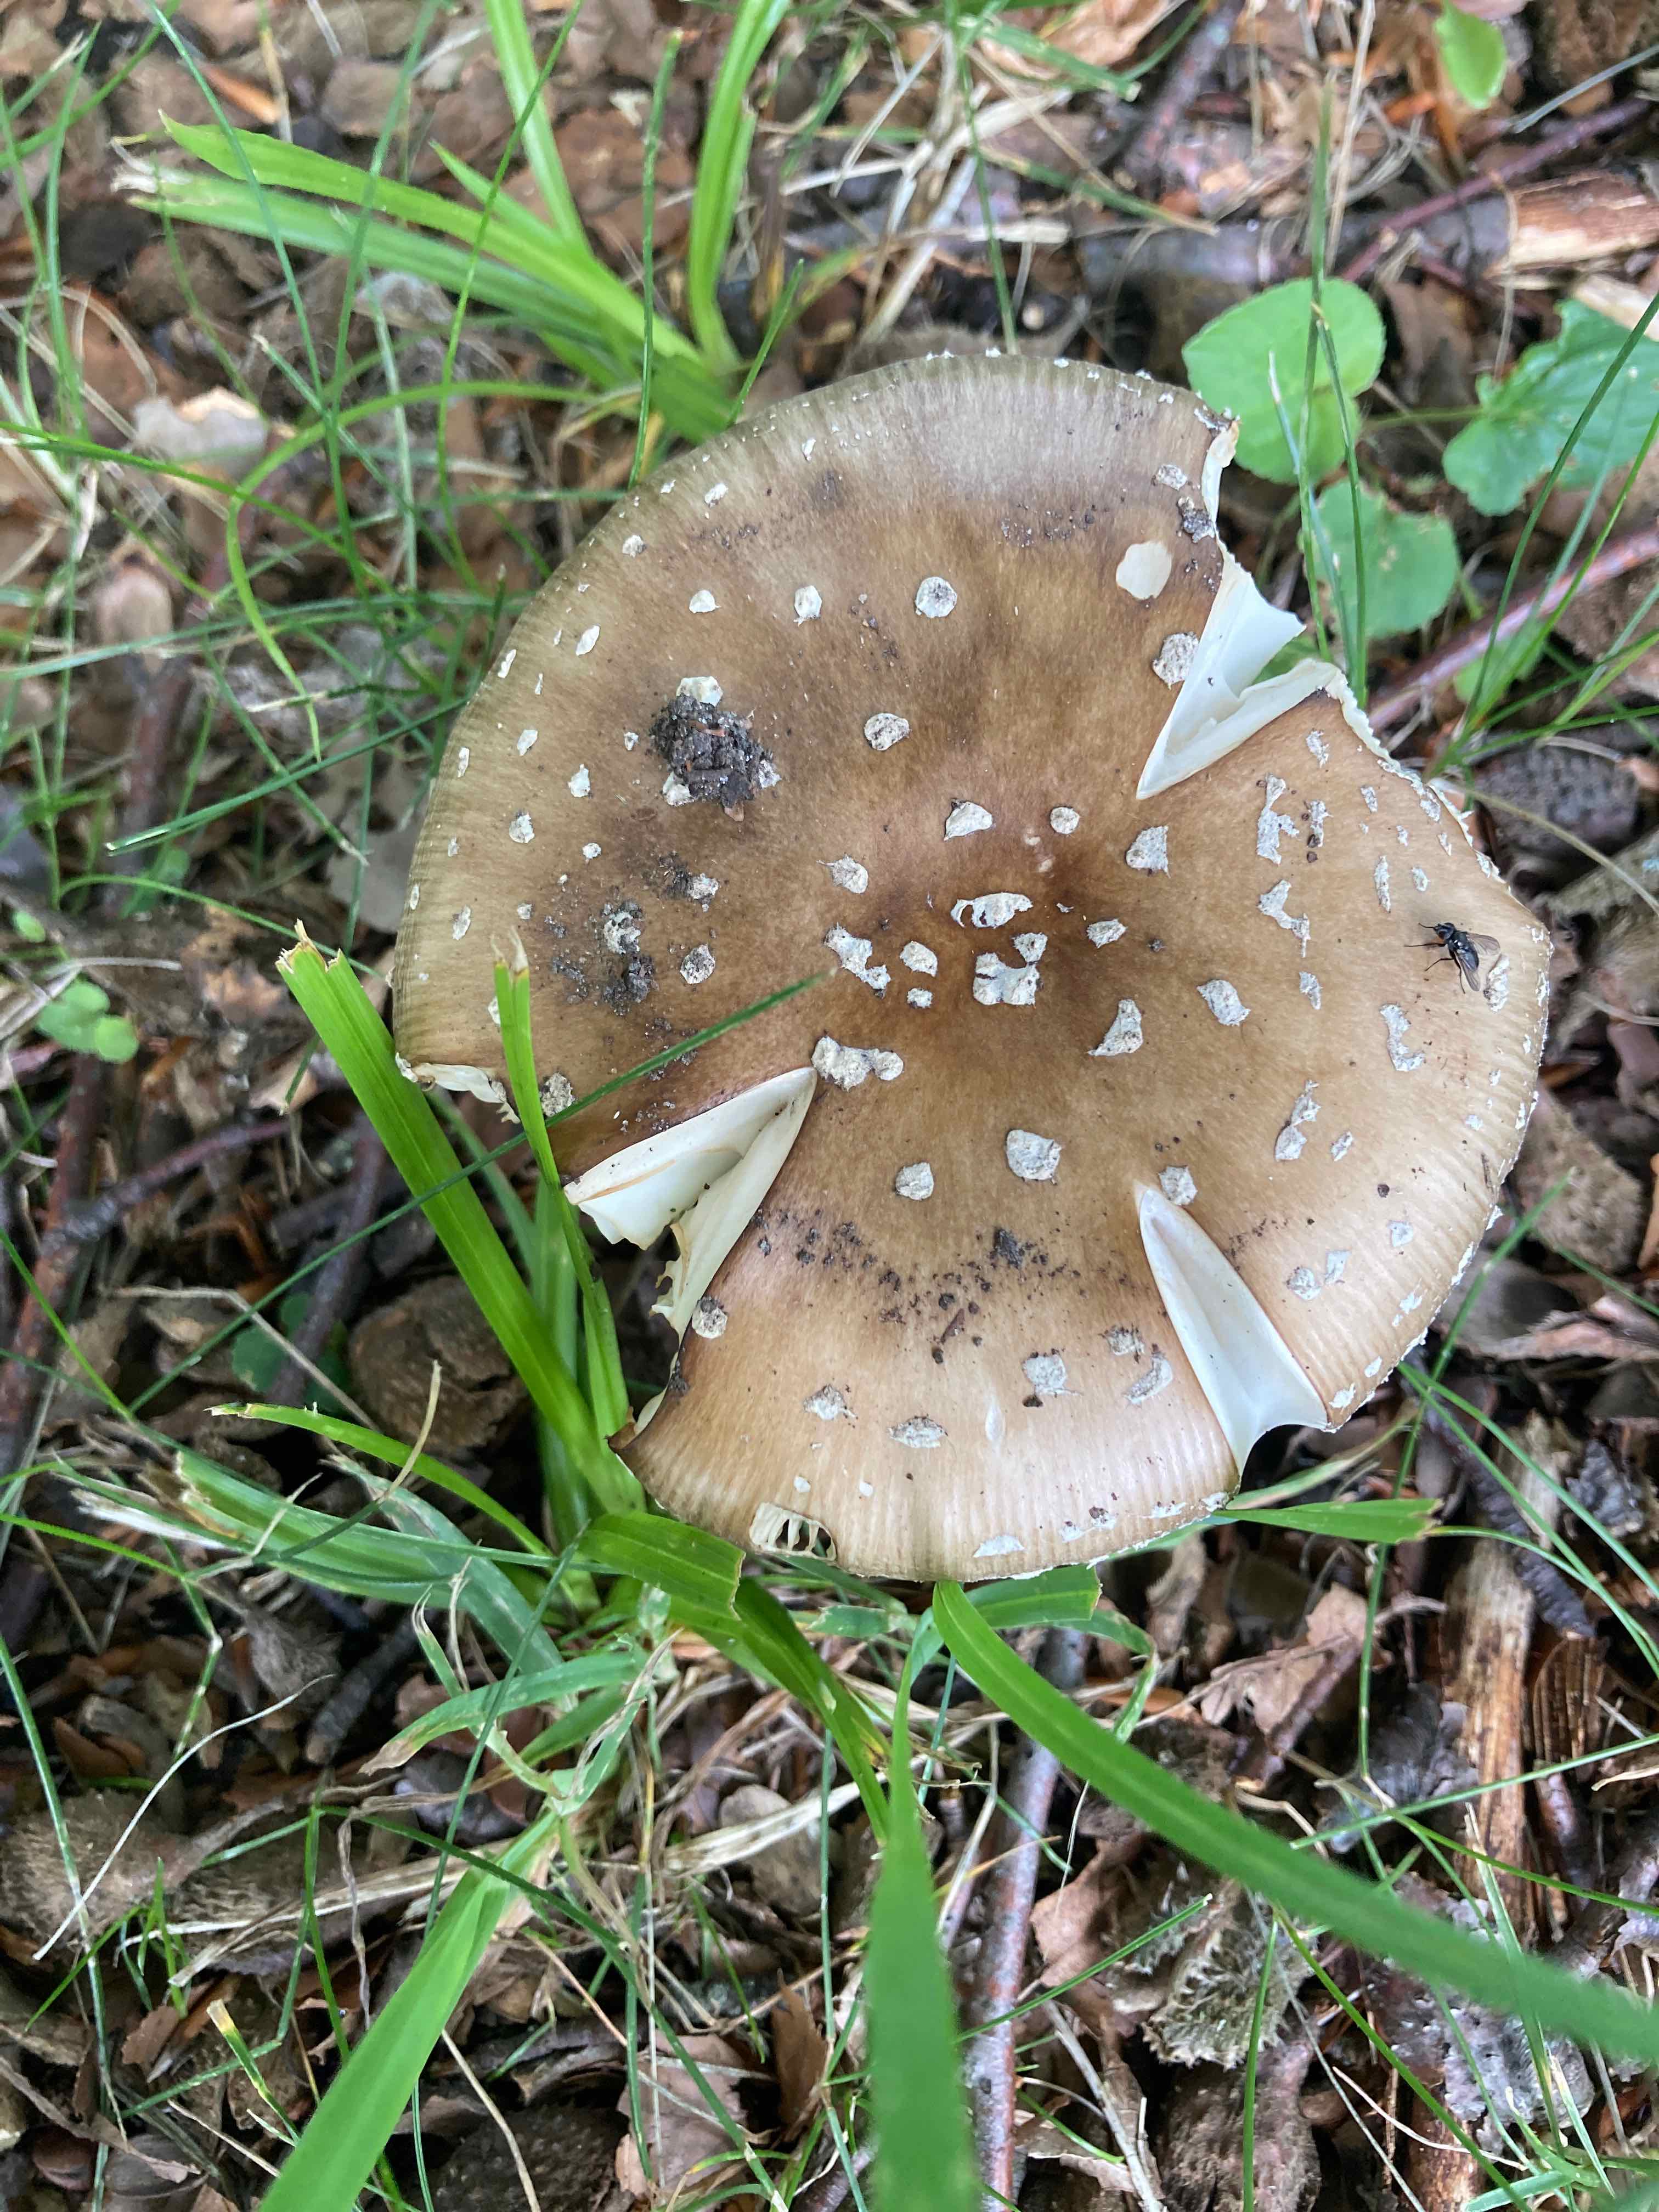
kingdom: Fungi
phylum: Basidiomycota
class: Agaricomycetes
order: Agaricales
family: Amanitaceae
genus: Amanita
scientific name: Amanita pantherina
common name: panter-fluesvamp
